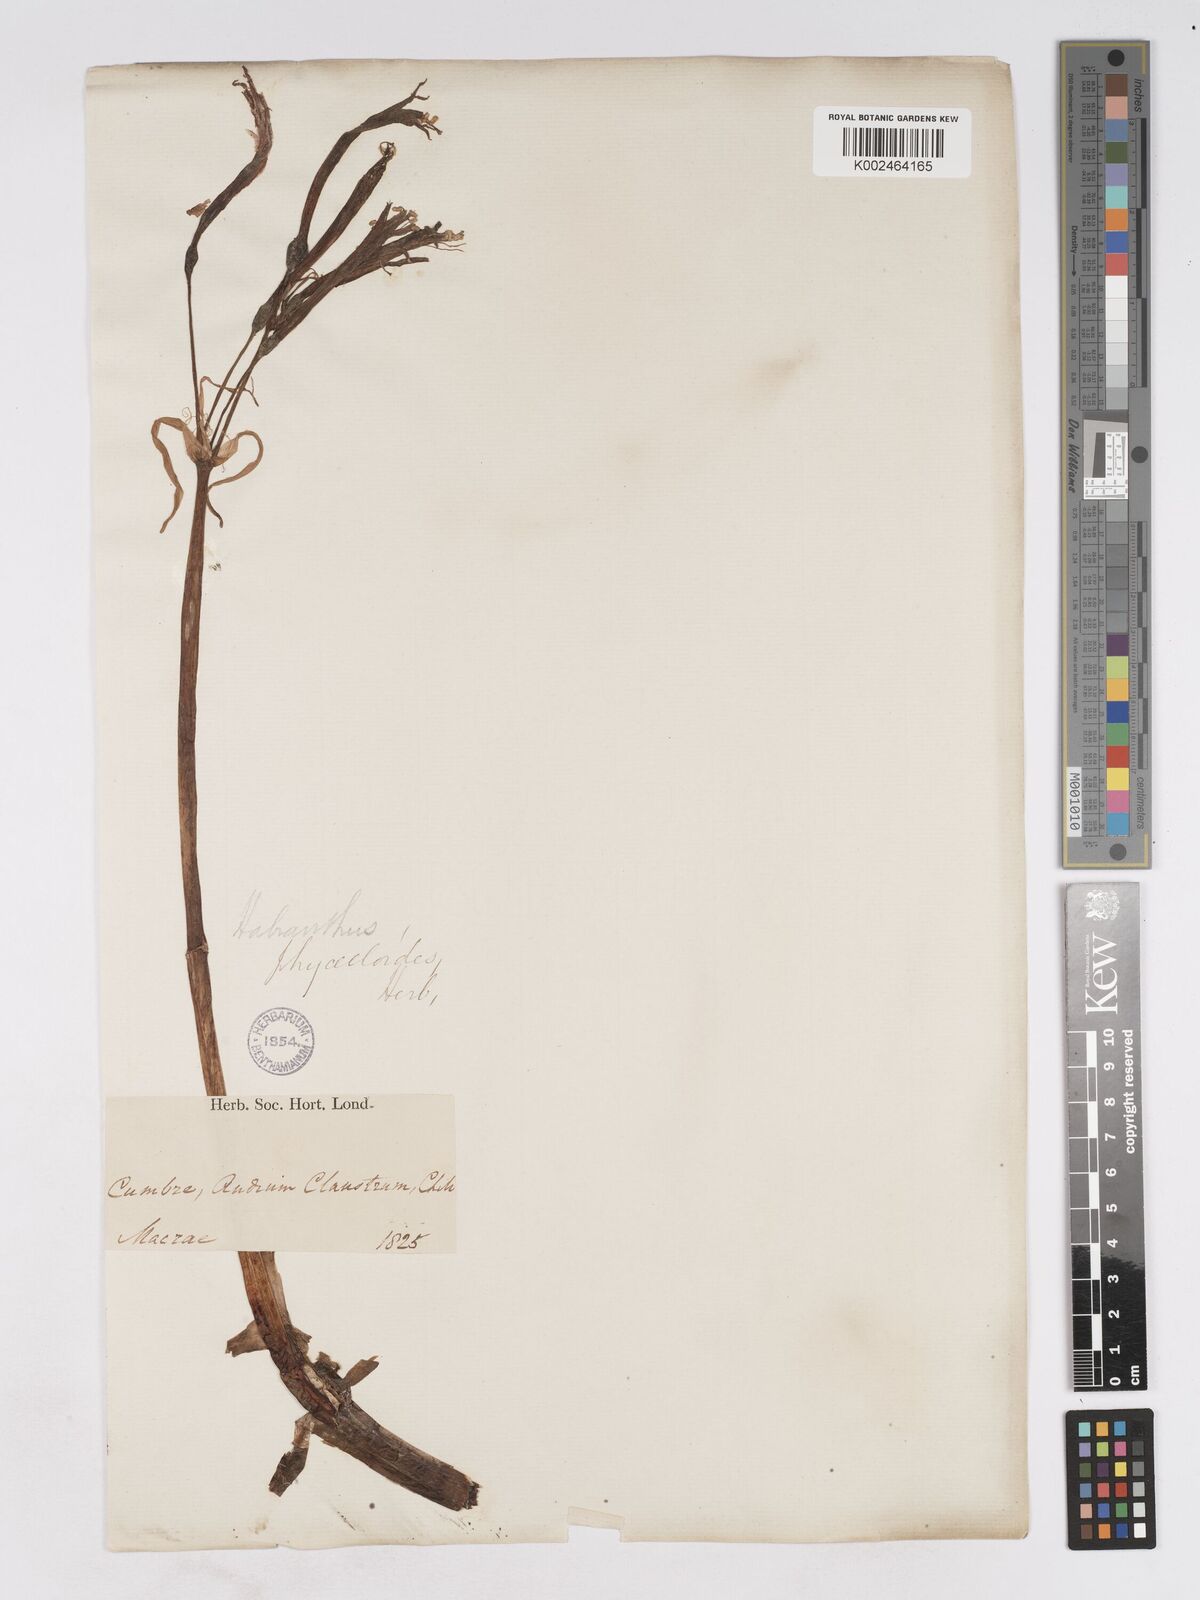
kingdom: Plantae
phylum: Tracheophyta
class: Liliopsida
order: Asparagales
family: Amaryllidaceae
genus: Zephyranthes
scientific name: Zephyranthes phycelloides
